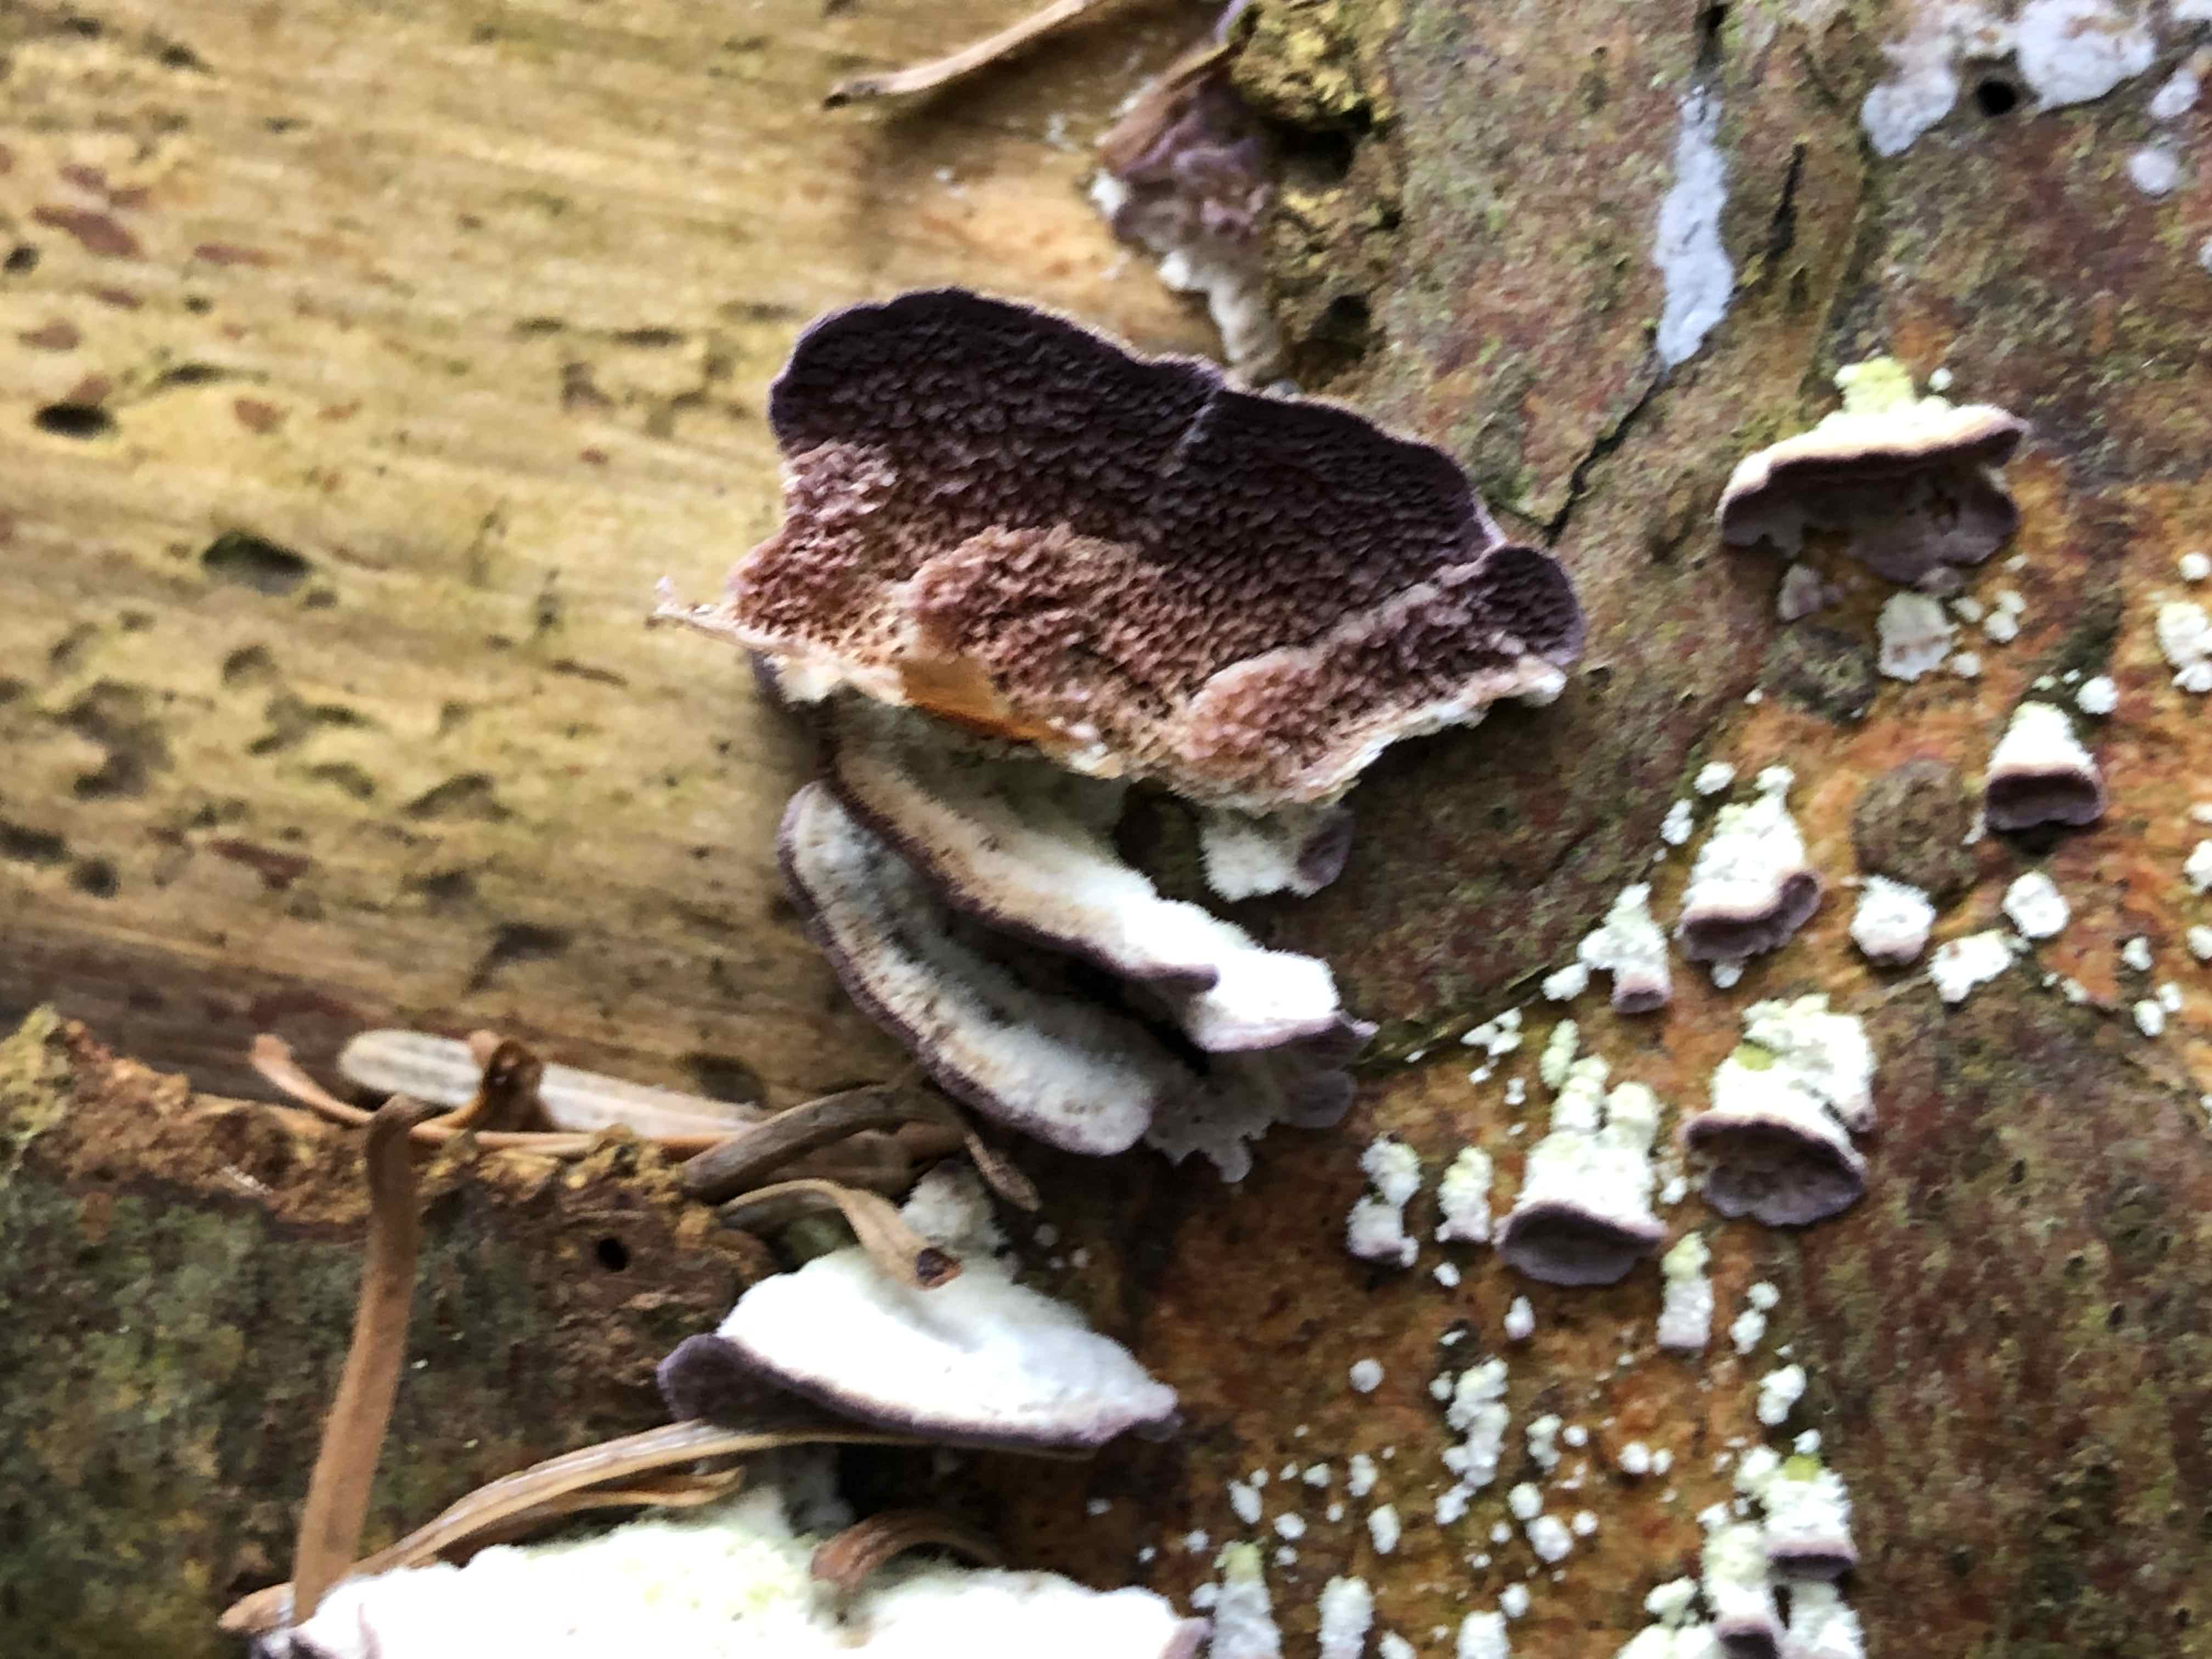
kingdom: Fungi
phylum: Basidiomycota
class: Agaricomycetes
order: Hymenochaetales
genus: Trichaptum
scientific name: Trichaptum abietinum
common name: almindelig violporesvamp
